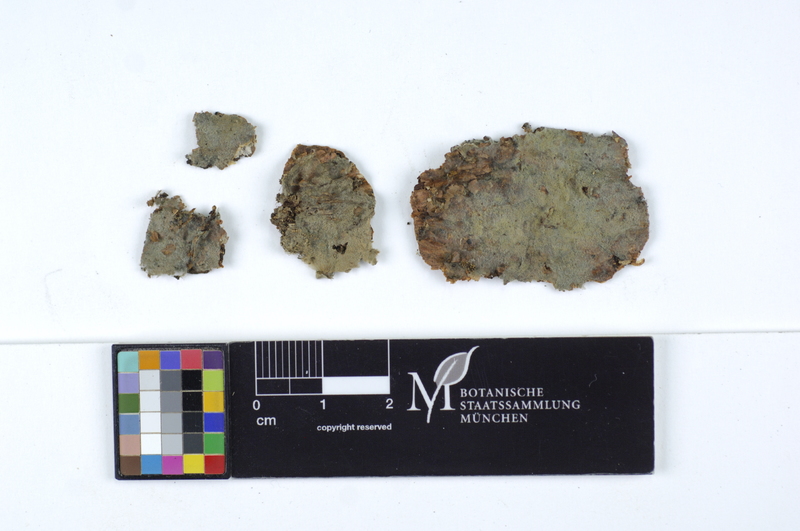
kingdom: Plantae
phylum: Tracheophyta
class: Pinopsida
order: Pinales
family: Pinaceae
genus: Picea
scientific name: Picea
